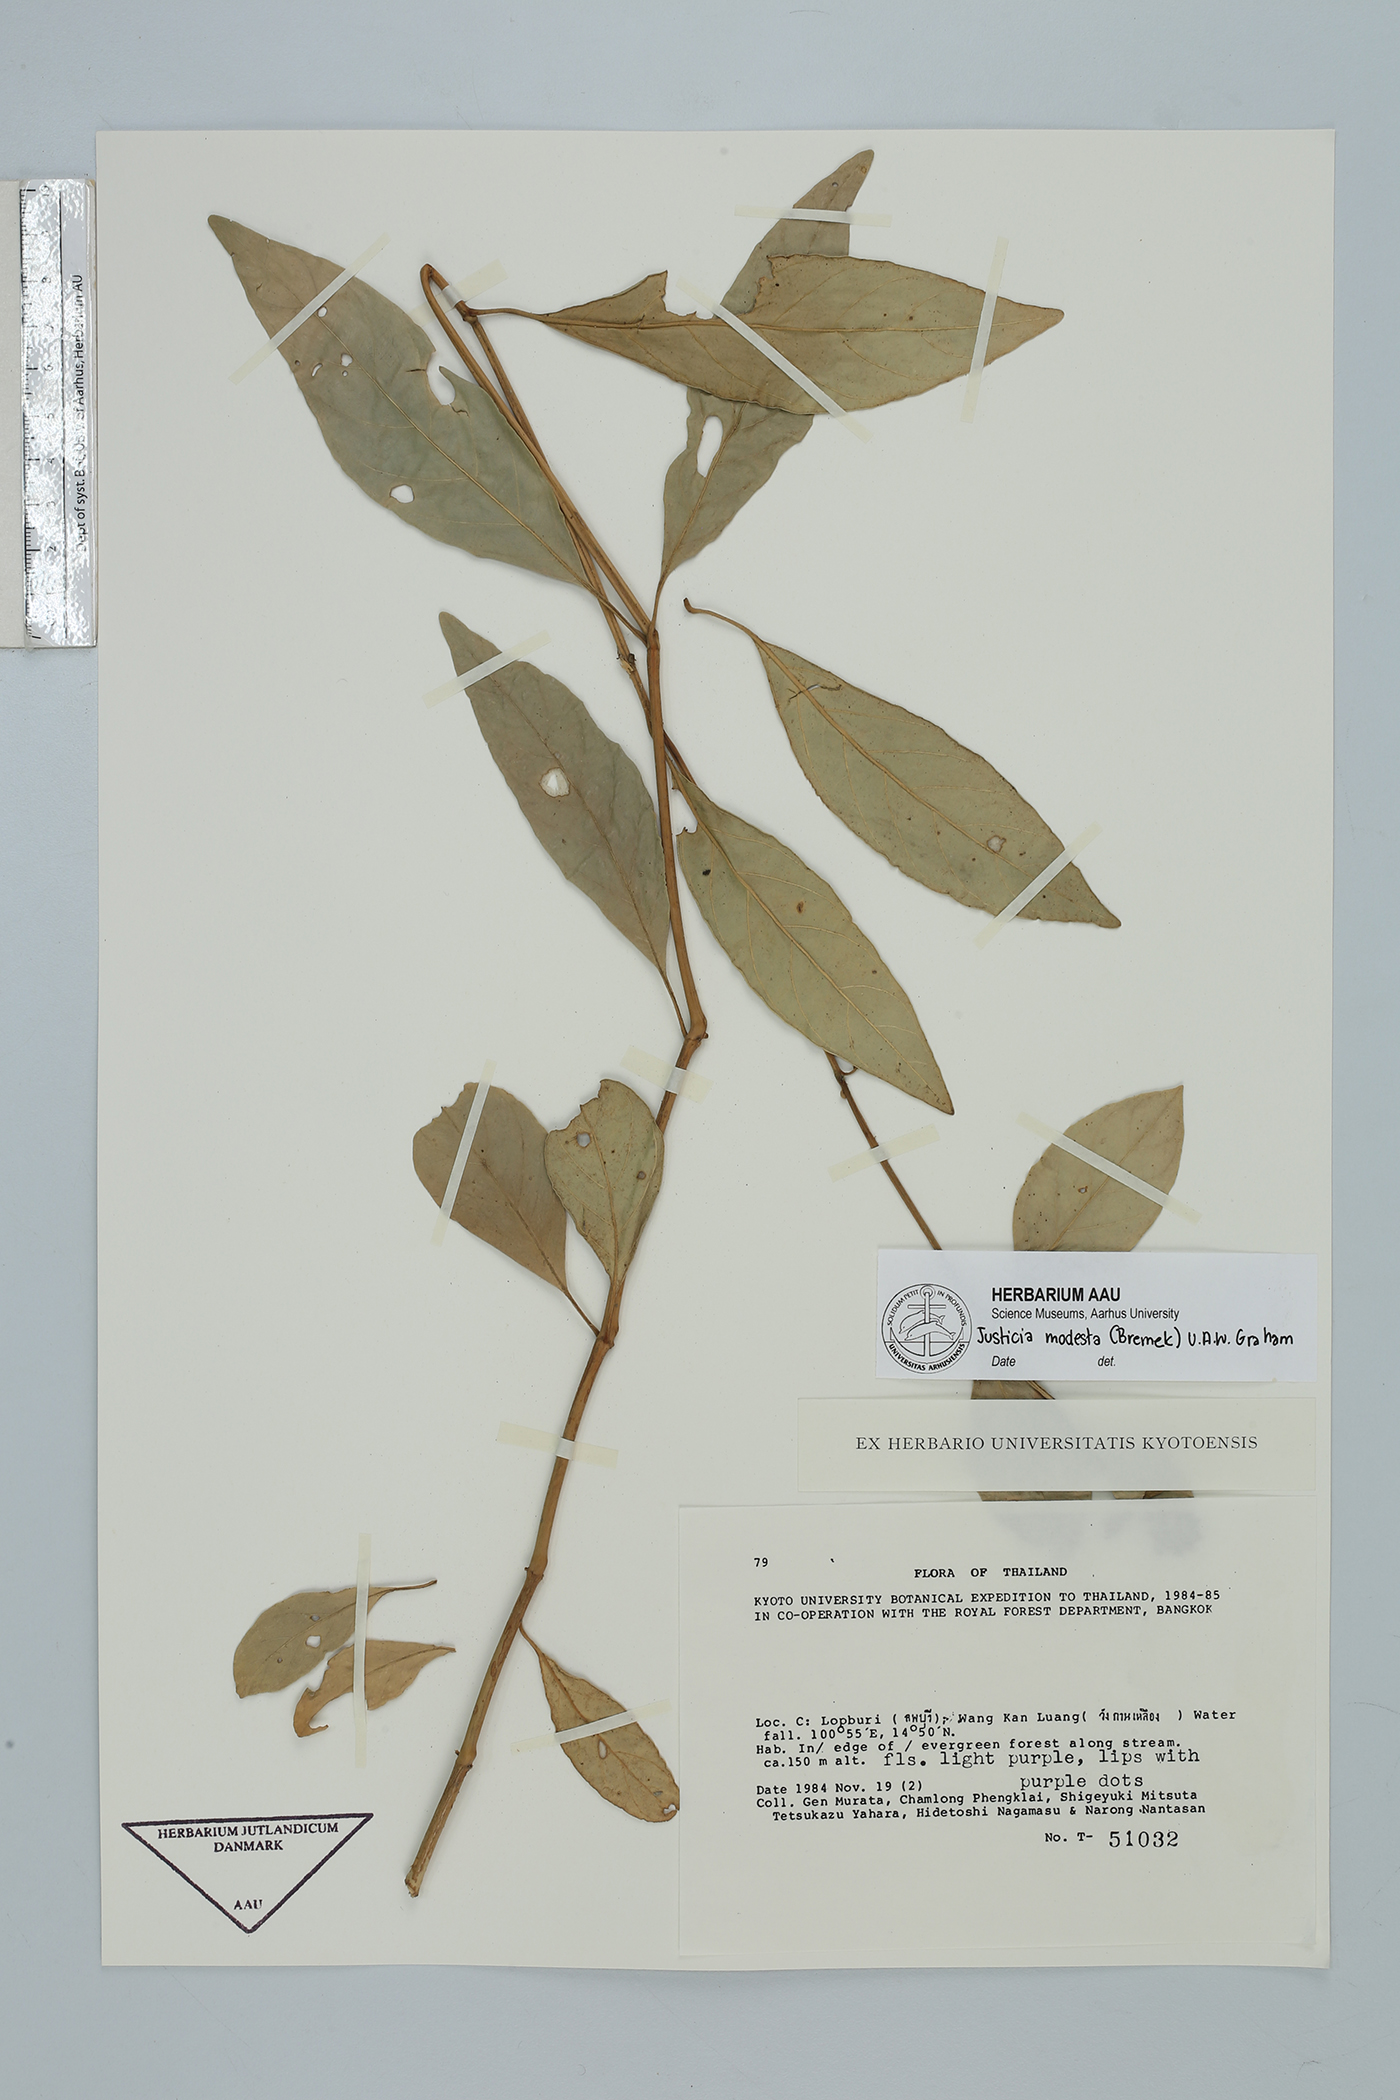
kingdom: Plantae
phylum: Tracheophyta
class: Magnoliopsida
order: Lamiales
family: Acanthaceae
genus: Justicia
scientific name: Justicia modesta
